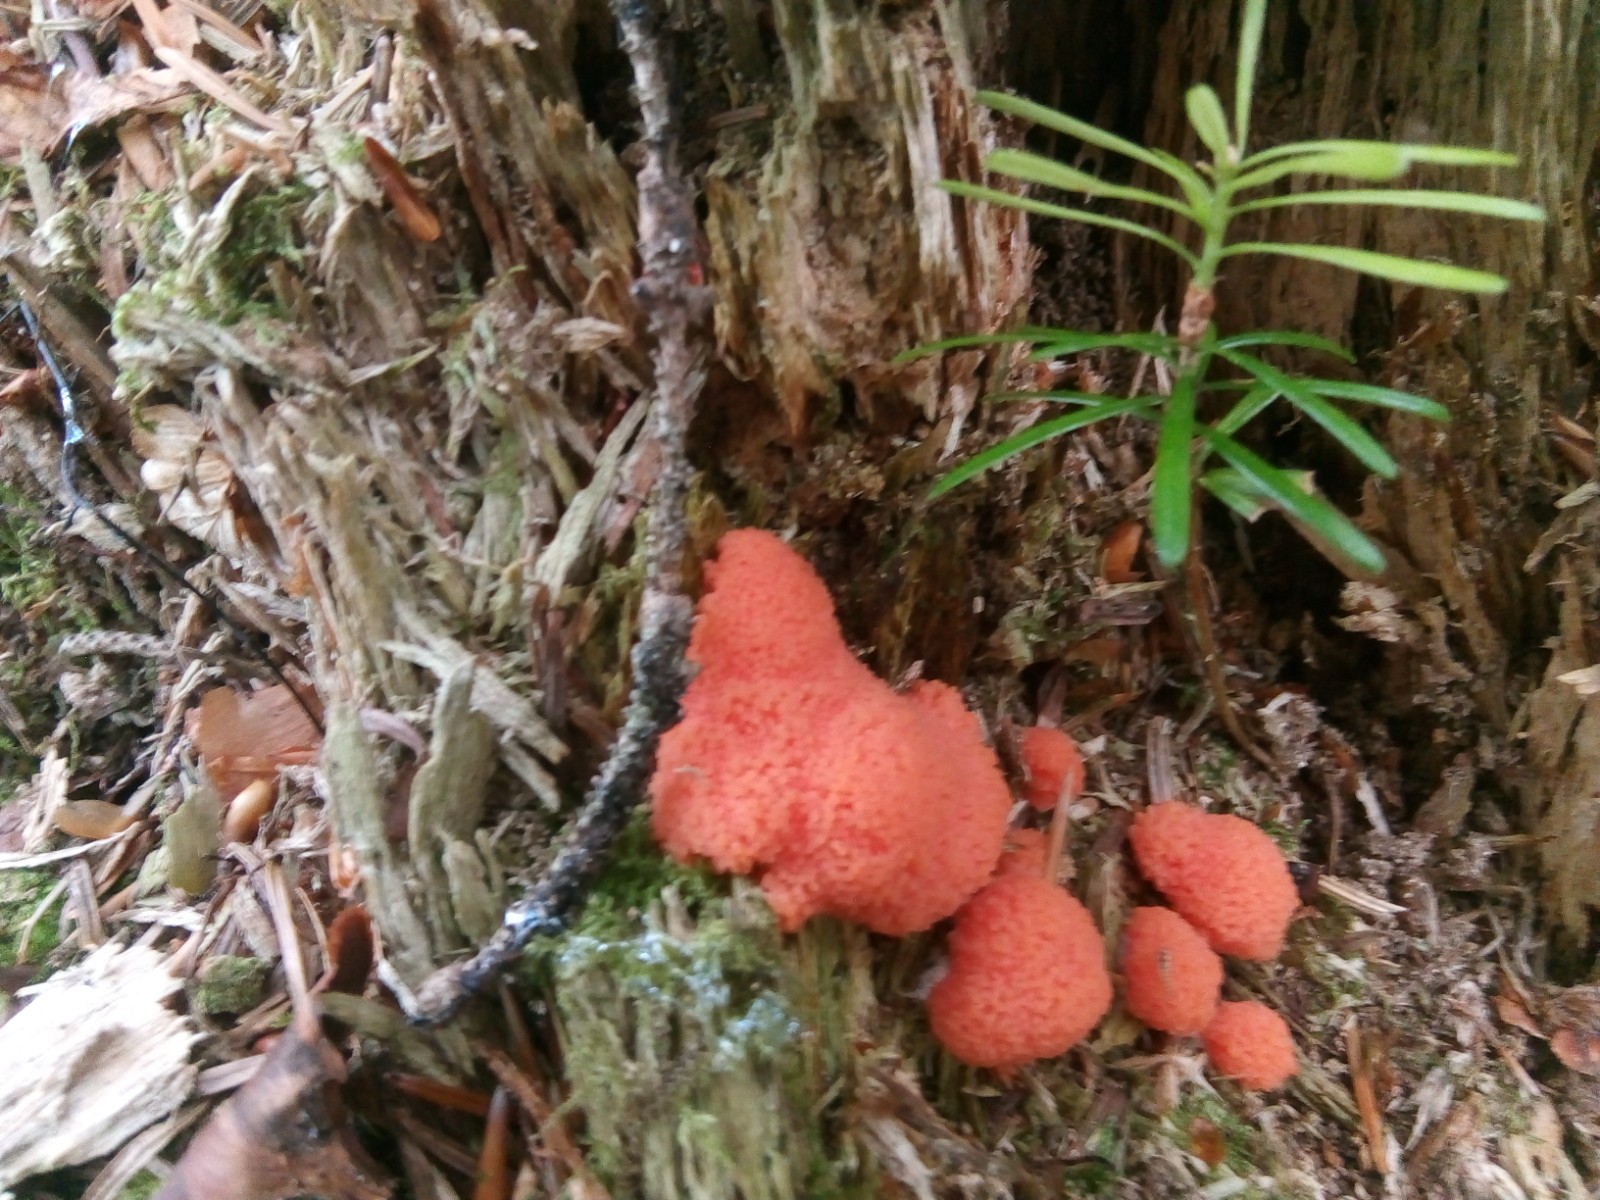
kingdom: Protozoa
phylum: Mycetozoa
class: Myxomycetes
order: Cribrariales
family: Tubiferaceae
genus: Tubifera
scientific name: Tubifera ferruginosa
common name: kanel-støvrør
